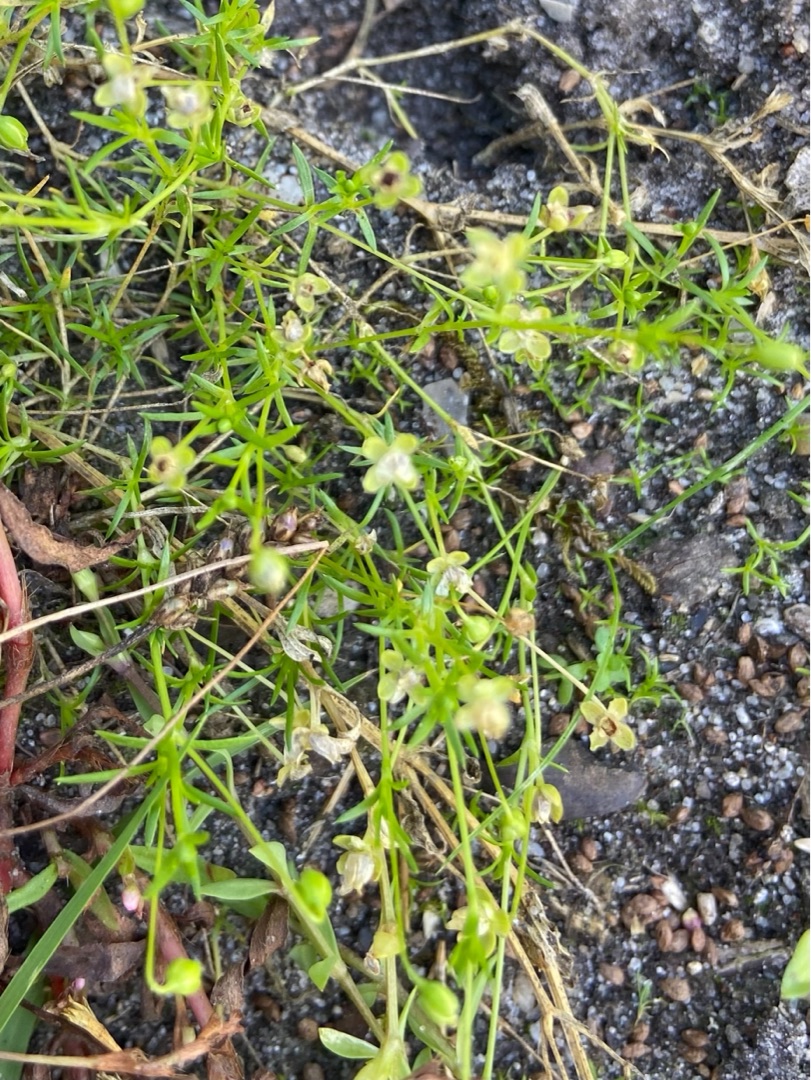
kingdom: Plantae
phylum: Tracheophyta
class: Magnoliopsida
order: Caryophyllales
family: Caryophyllaceae
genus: Sagina
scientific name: Sagina procumbens
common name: Almindelig firling
